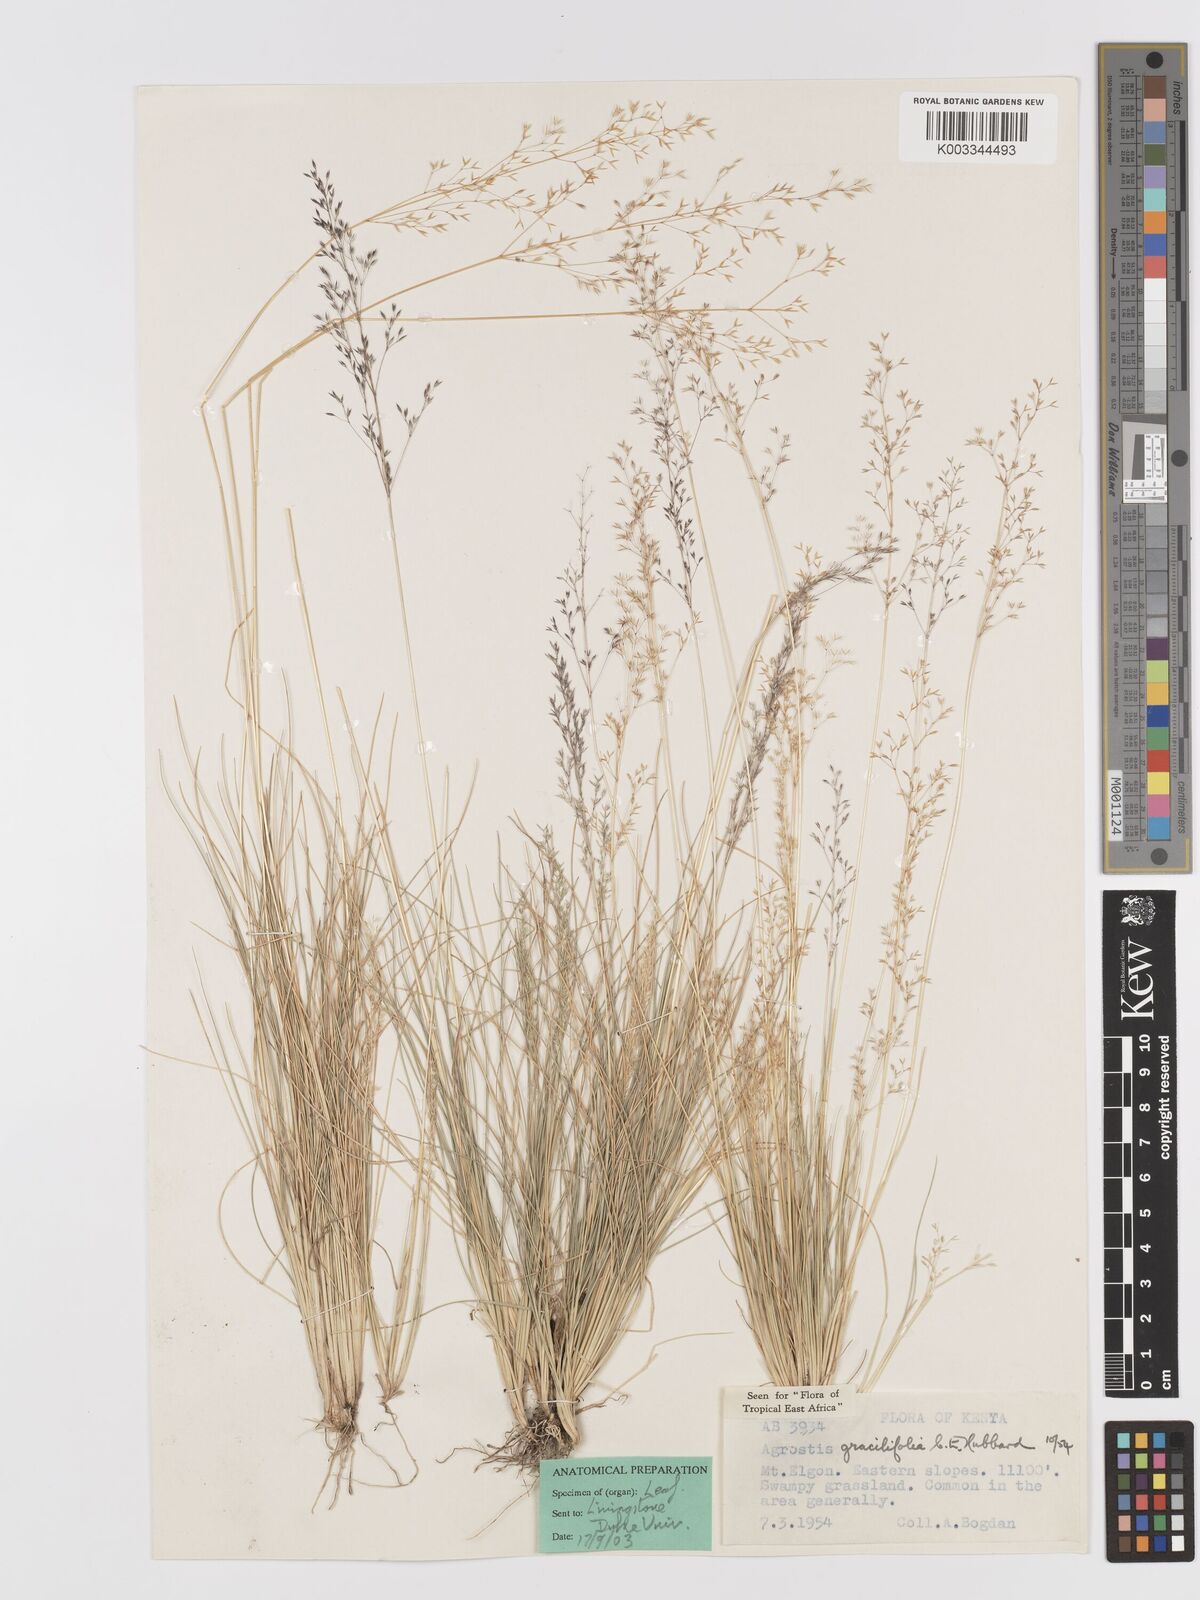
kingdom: Plantae
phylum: Tracheophyta
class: Liliopsida
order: Poales
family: Poaceae
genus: Agrostis
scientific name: Agrostis gracilifolia
